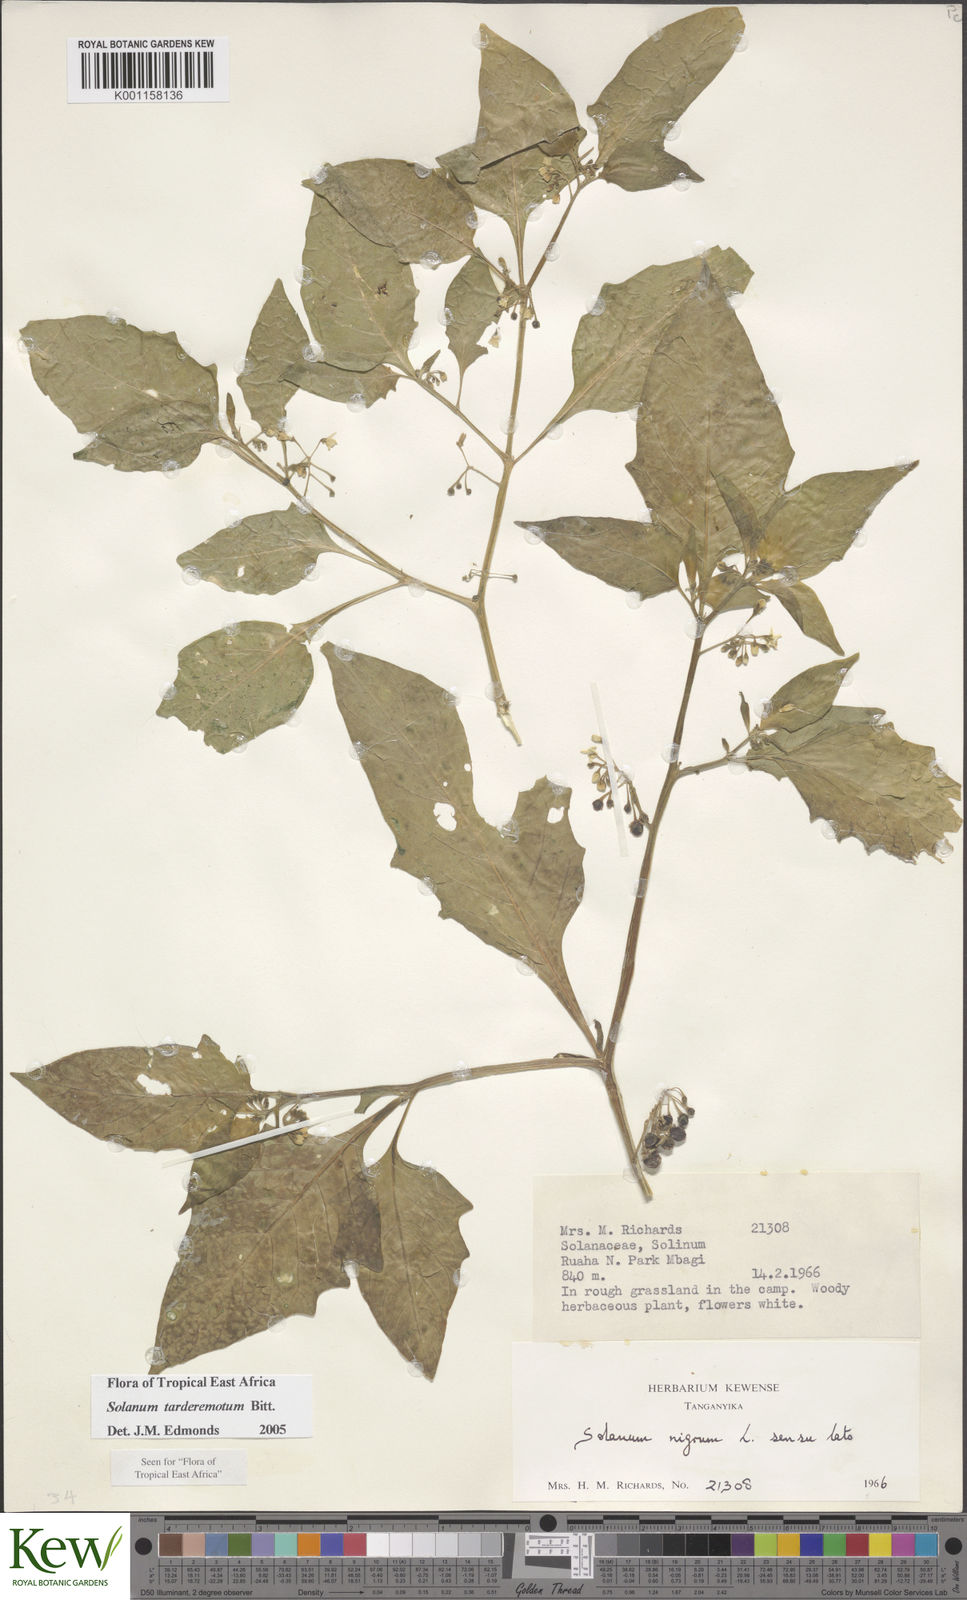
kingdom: Plantae
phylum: Tracheophyta
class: Magnoliopsida
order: Solanales
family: Solanaceae
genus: Solanum
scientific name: Solanum tarderemotum
